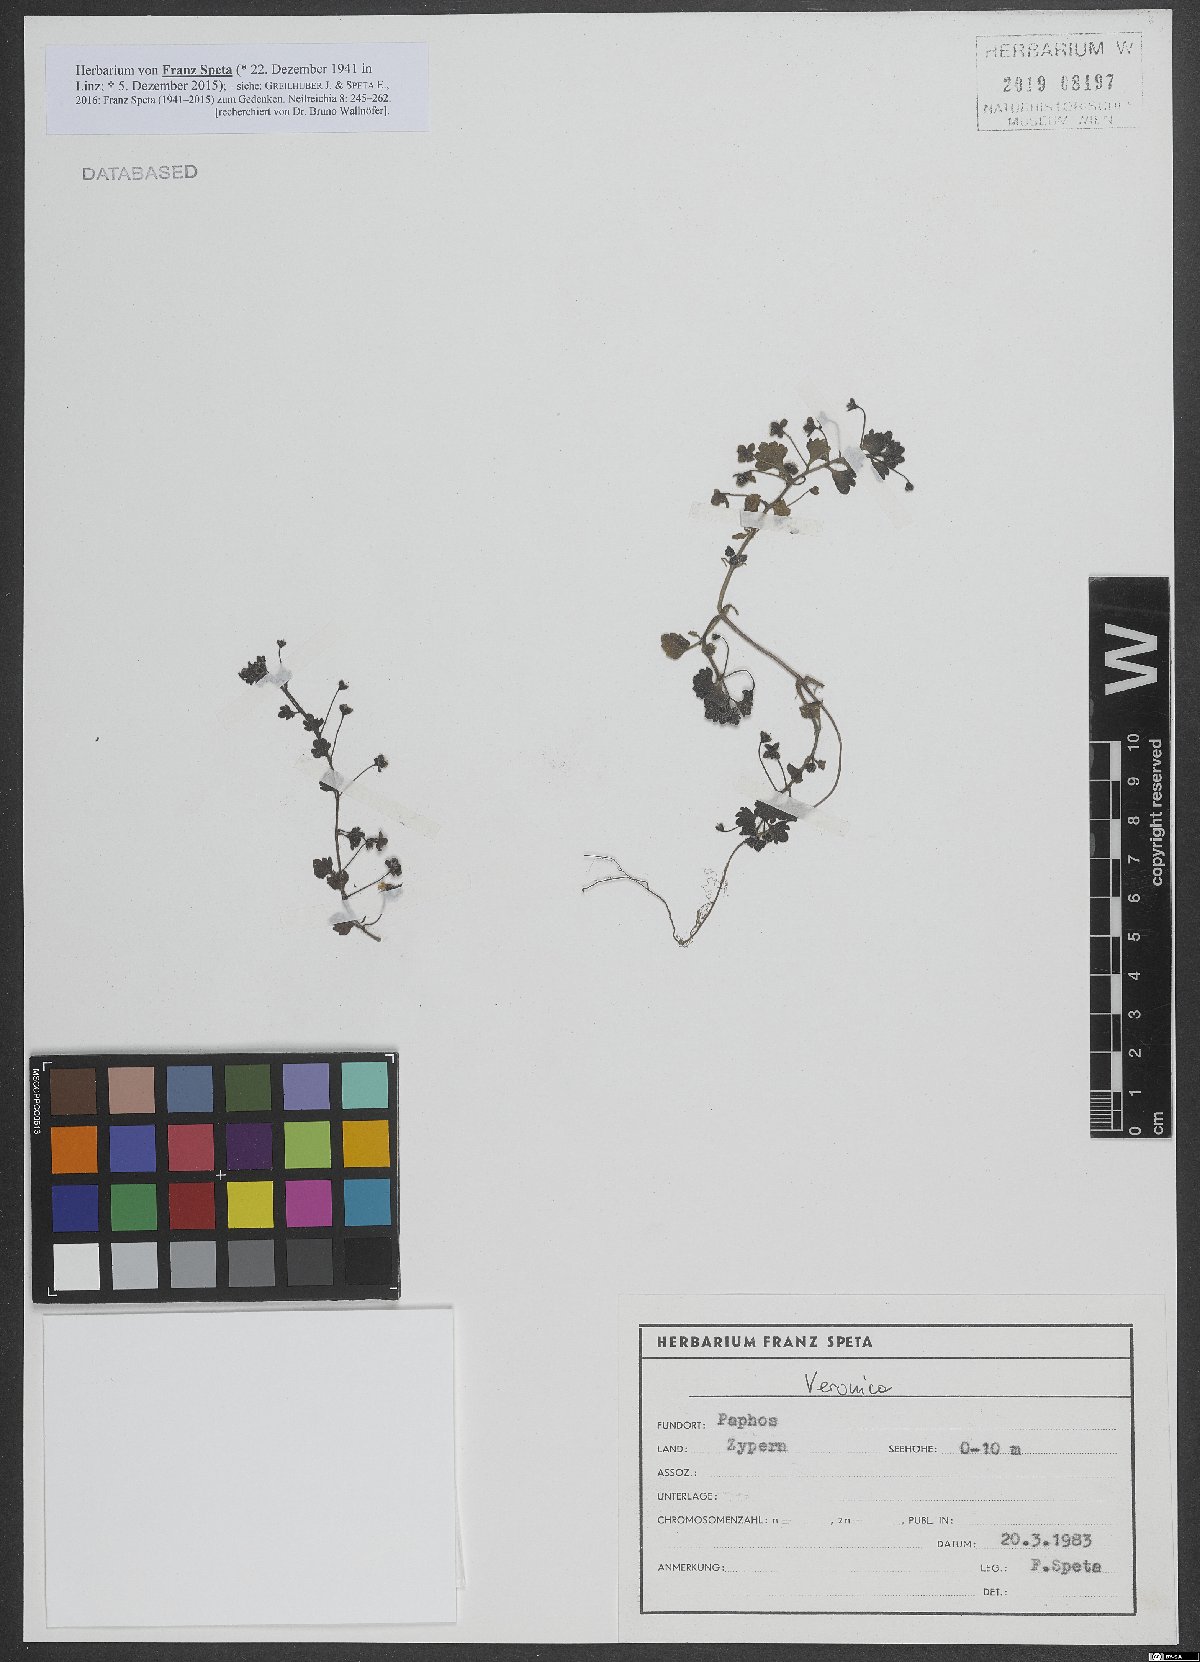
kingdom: Plantae
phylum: Tracheophyta
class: Magnoliopsida
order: Lamiales
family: Plantaginaceae
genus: Veronica
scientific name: Veronica
